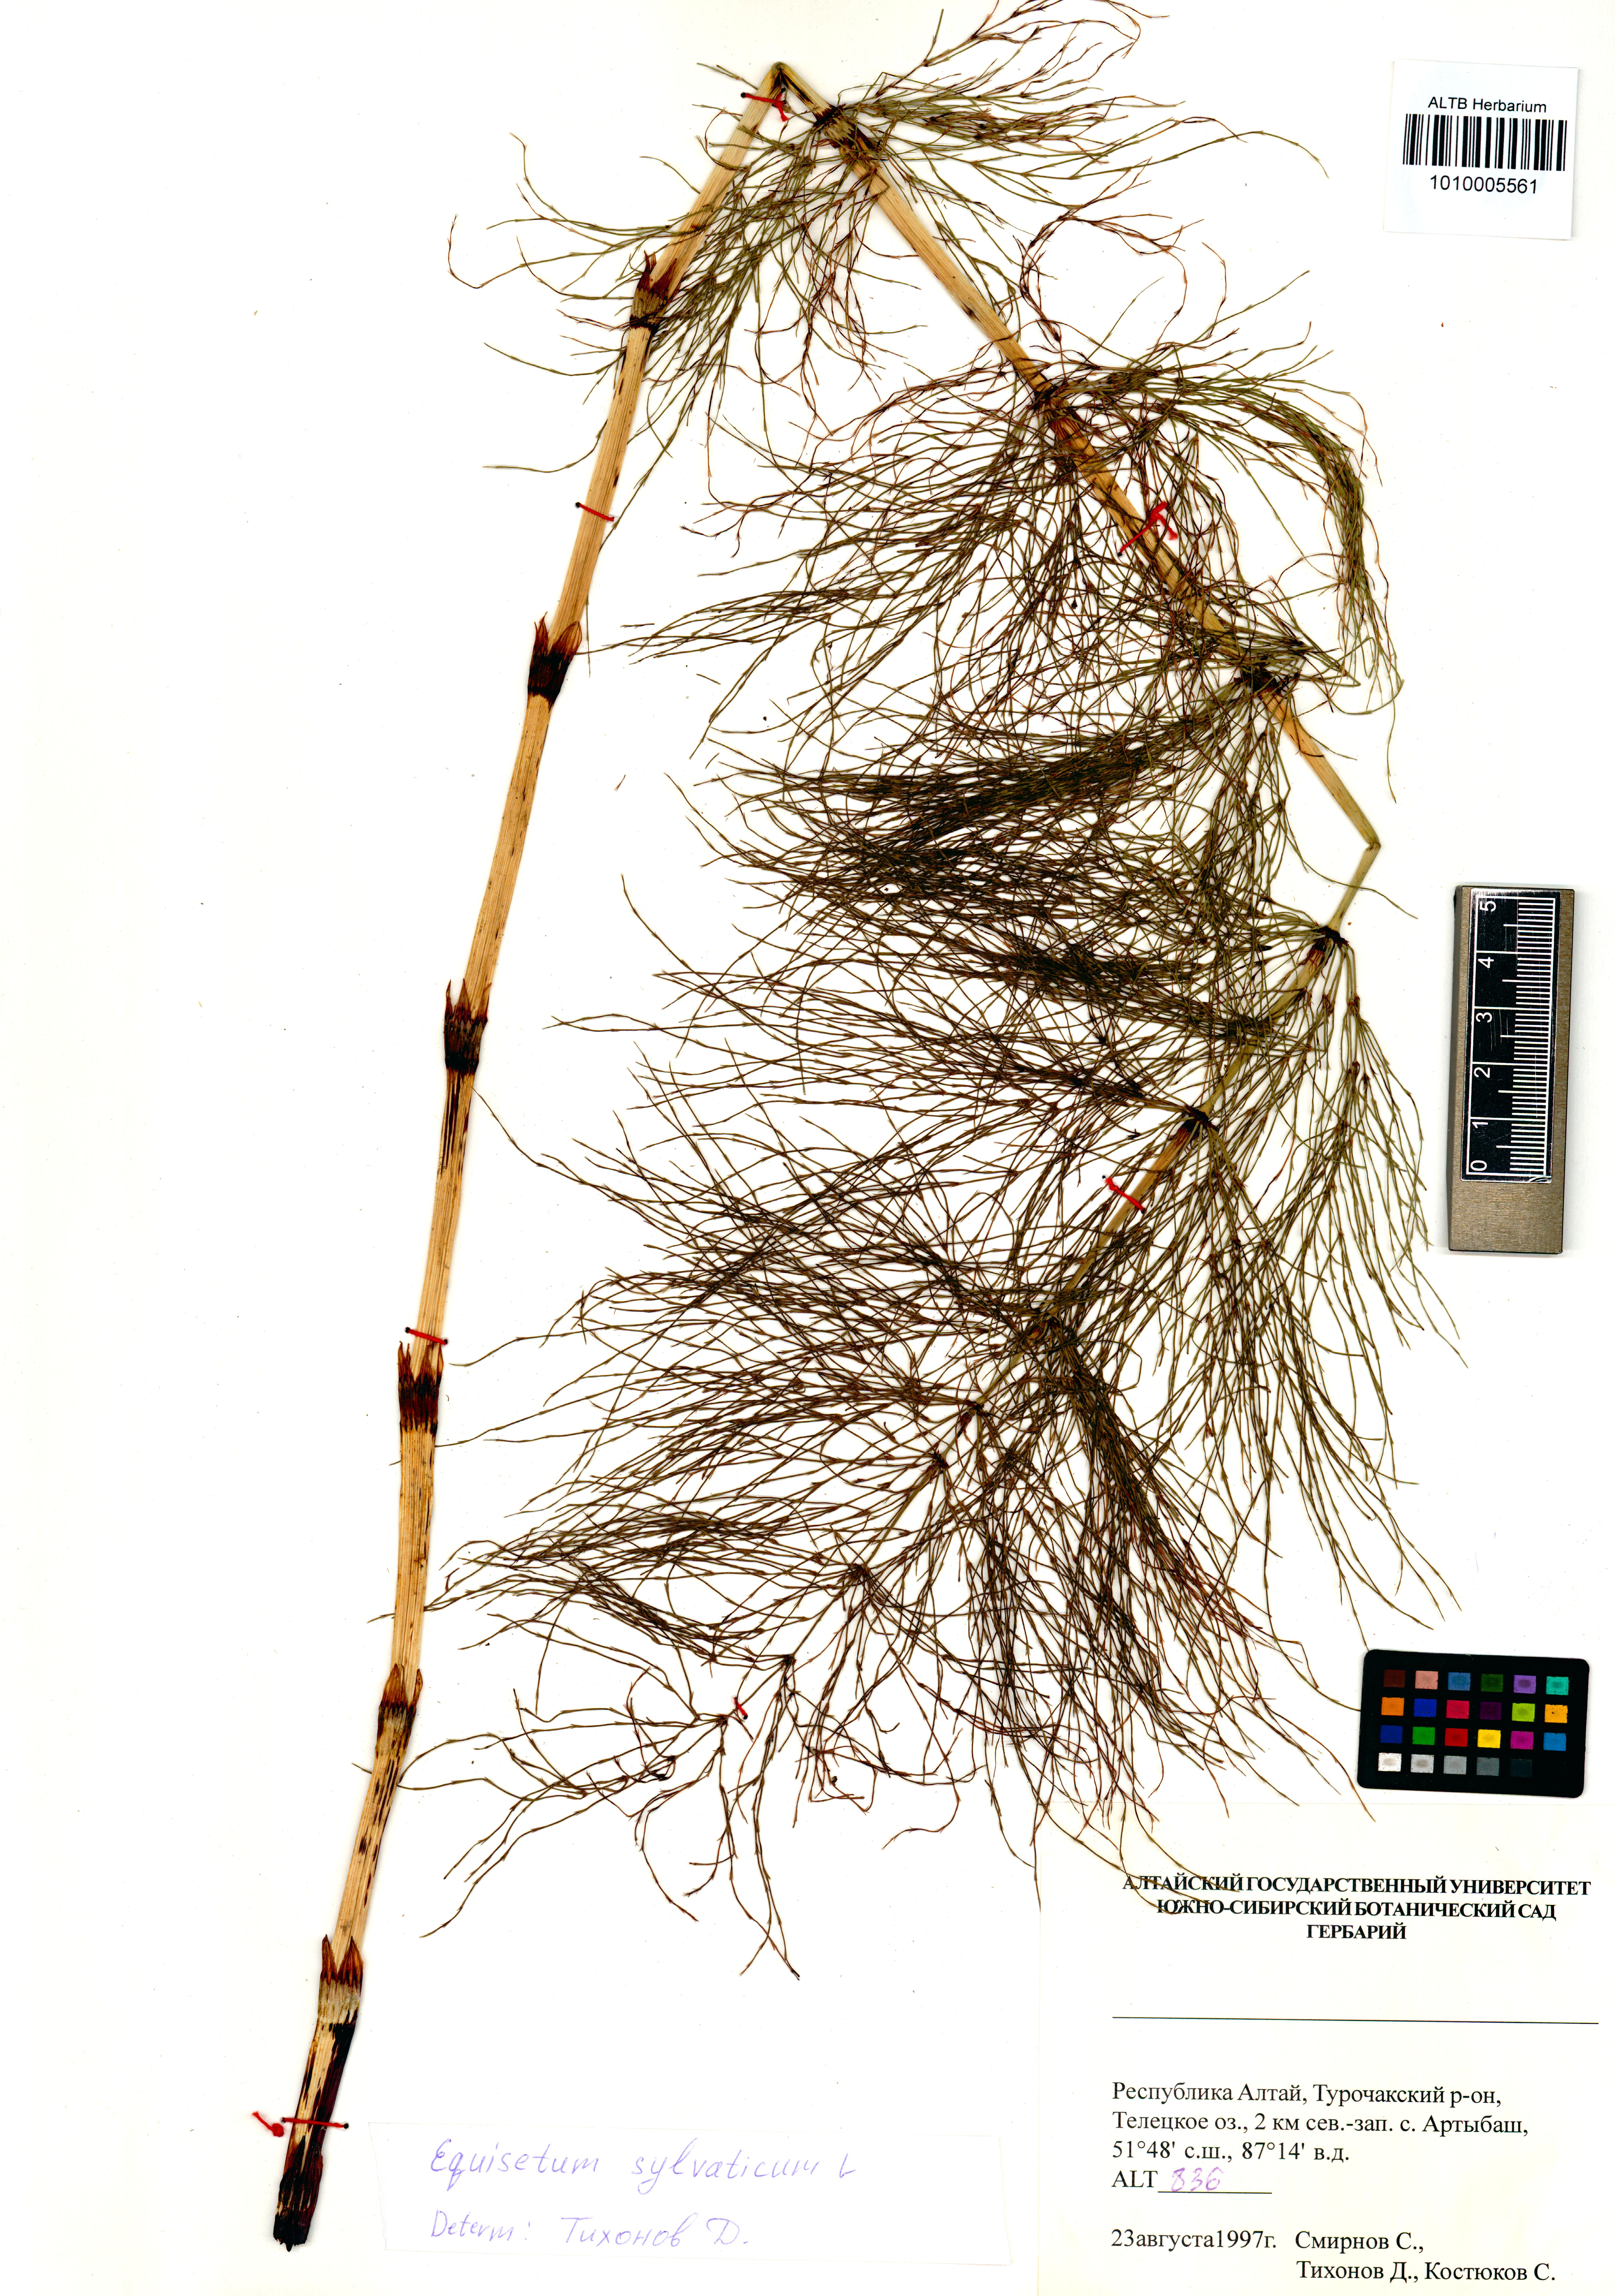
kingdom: Plantae
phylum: Tracheophyta
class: Polypodiopsida
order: Equisetales
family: Equisetaceae
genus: Equisetum
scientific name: Equisetum sylvaticum
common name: Wood horsetail
